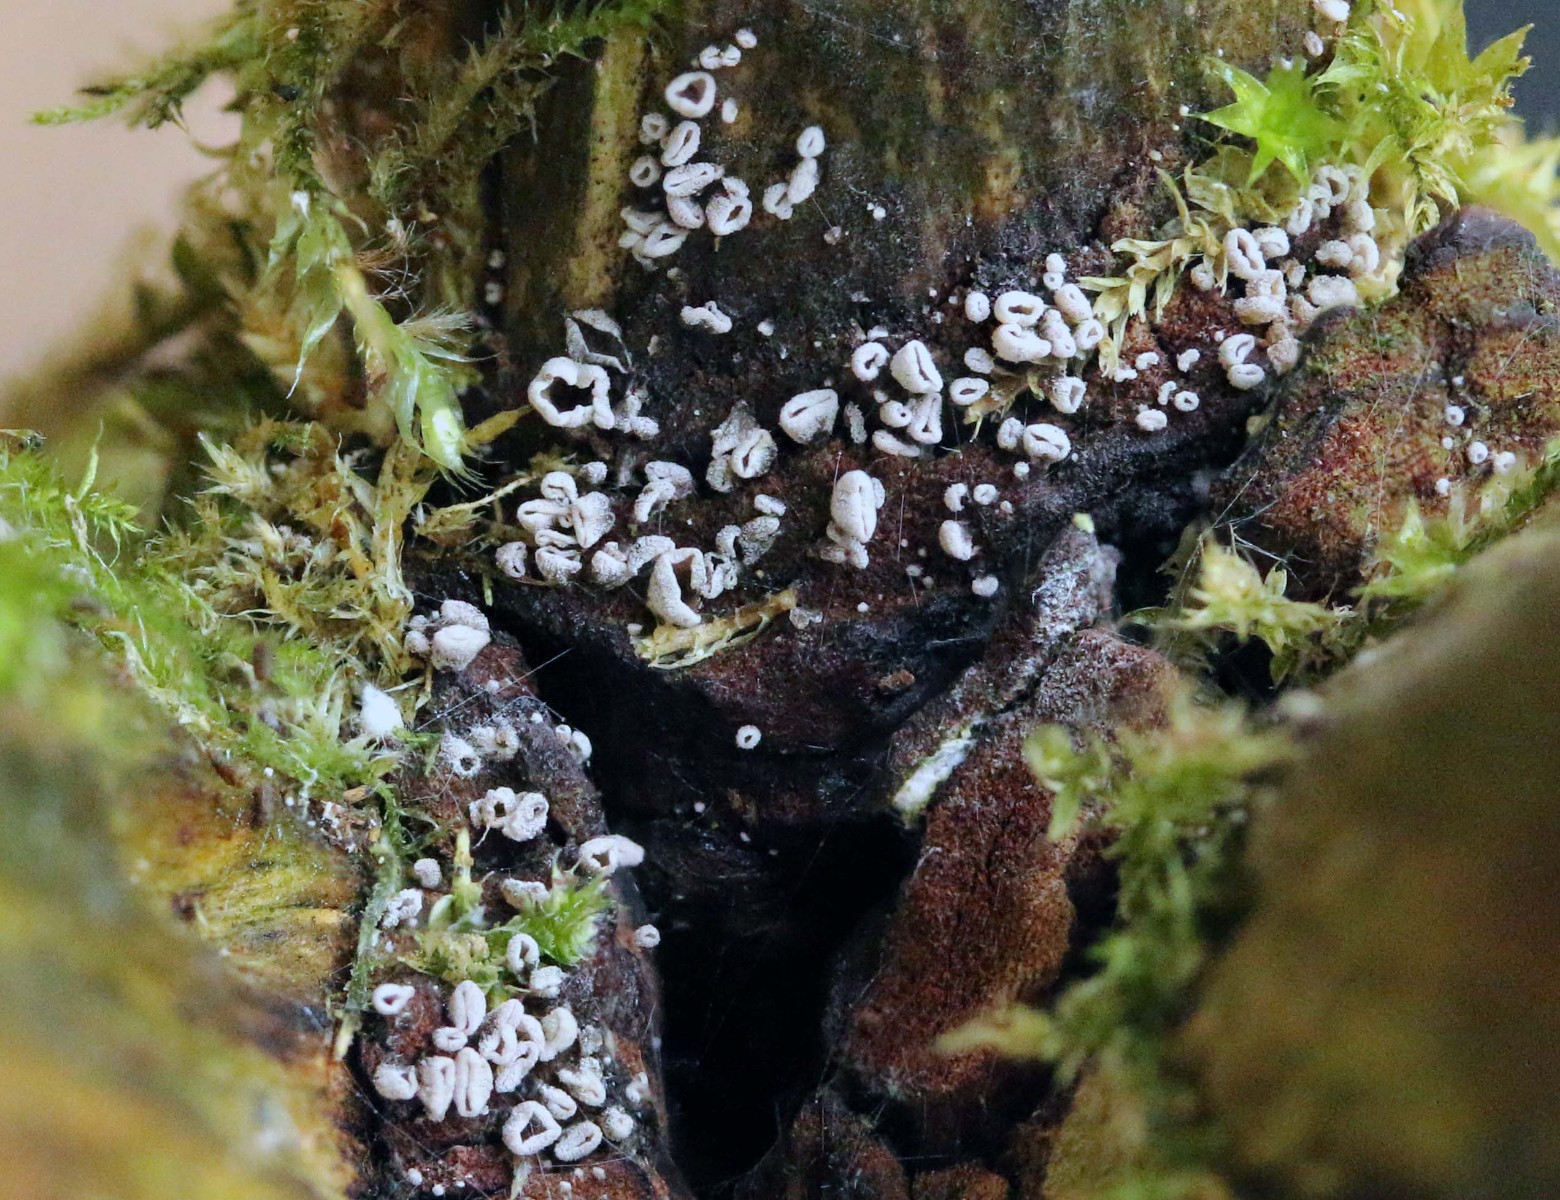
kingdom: Fungi
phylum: Basidiomycota
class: Agaricomycetes
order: Agaricales
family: Pleurotaceae
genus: Resupinatus
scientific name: Resupinatus griseopallidus
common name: ene-barkhat
